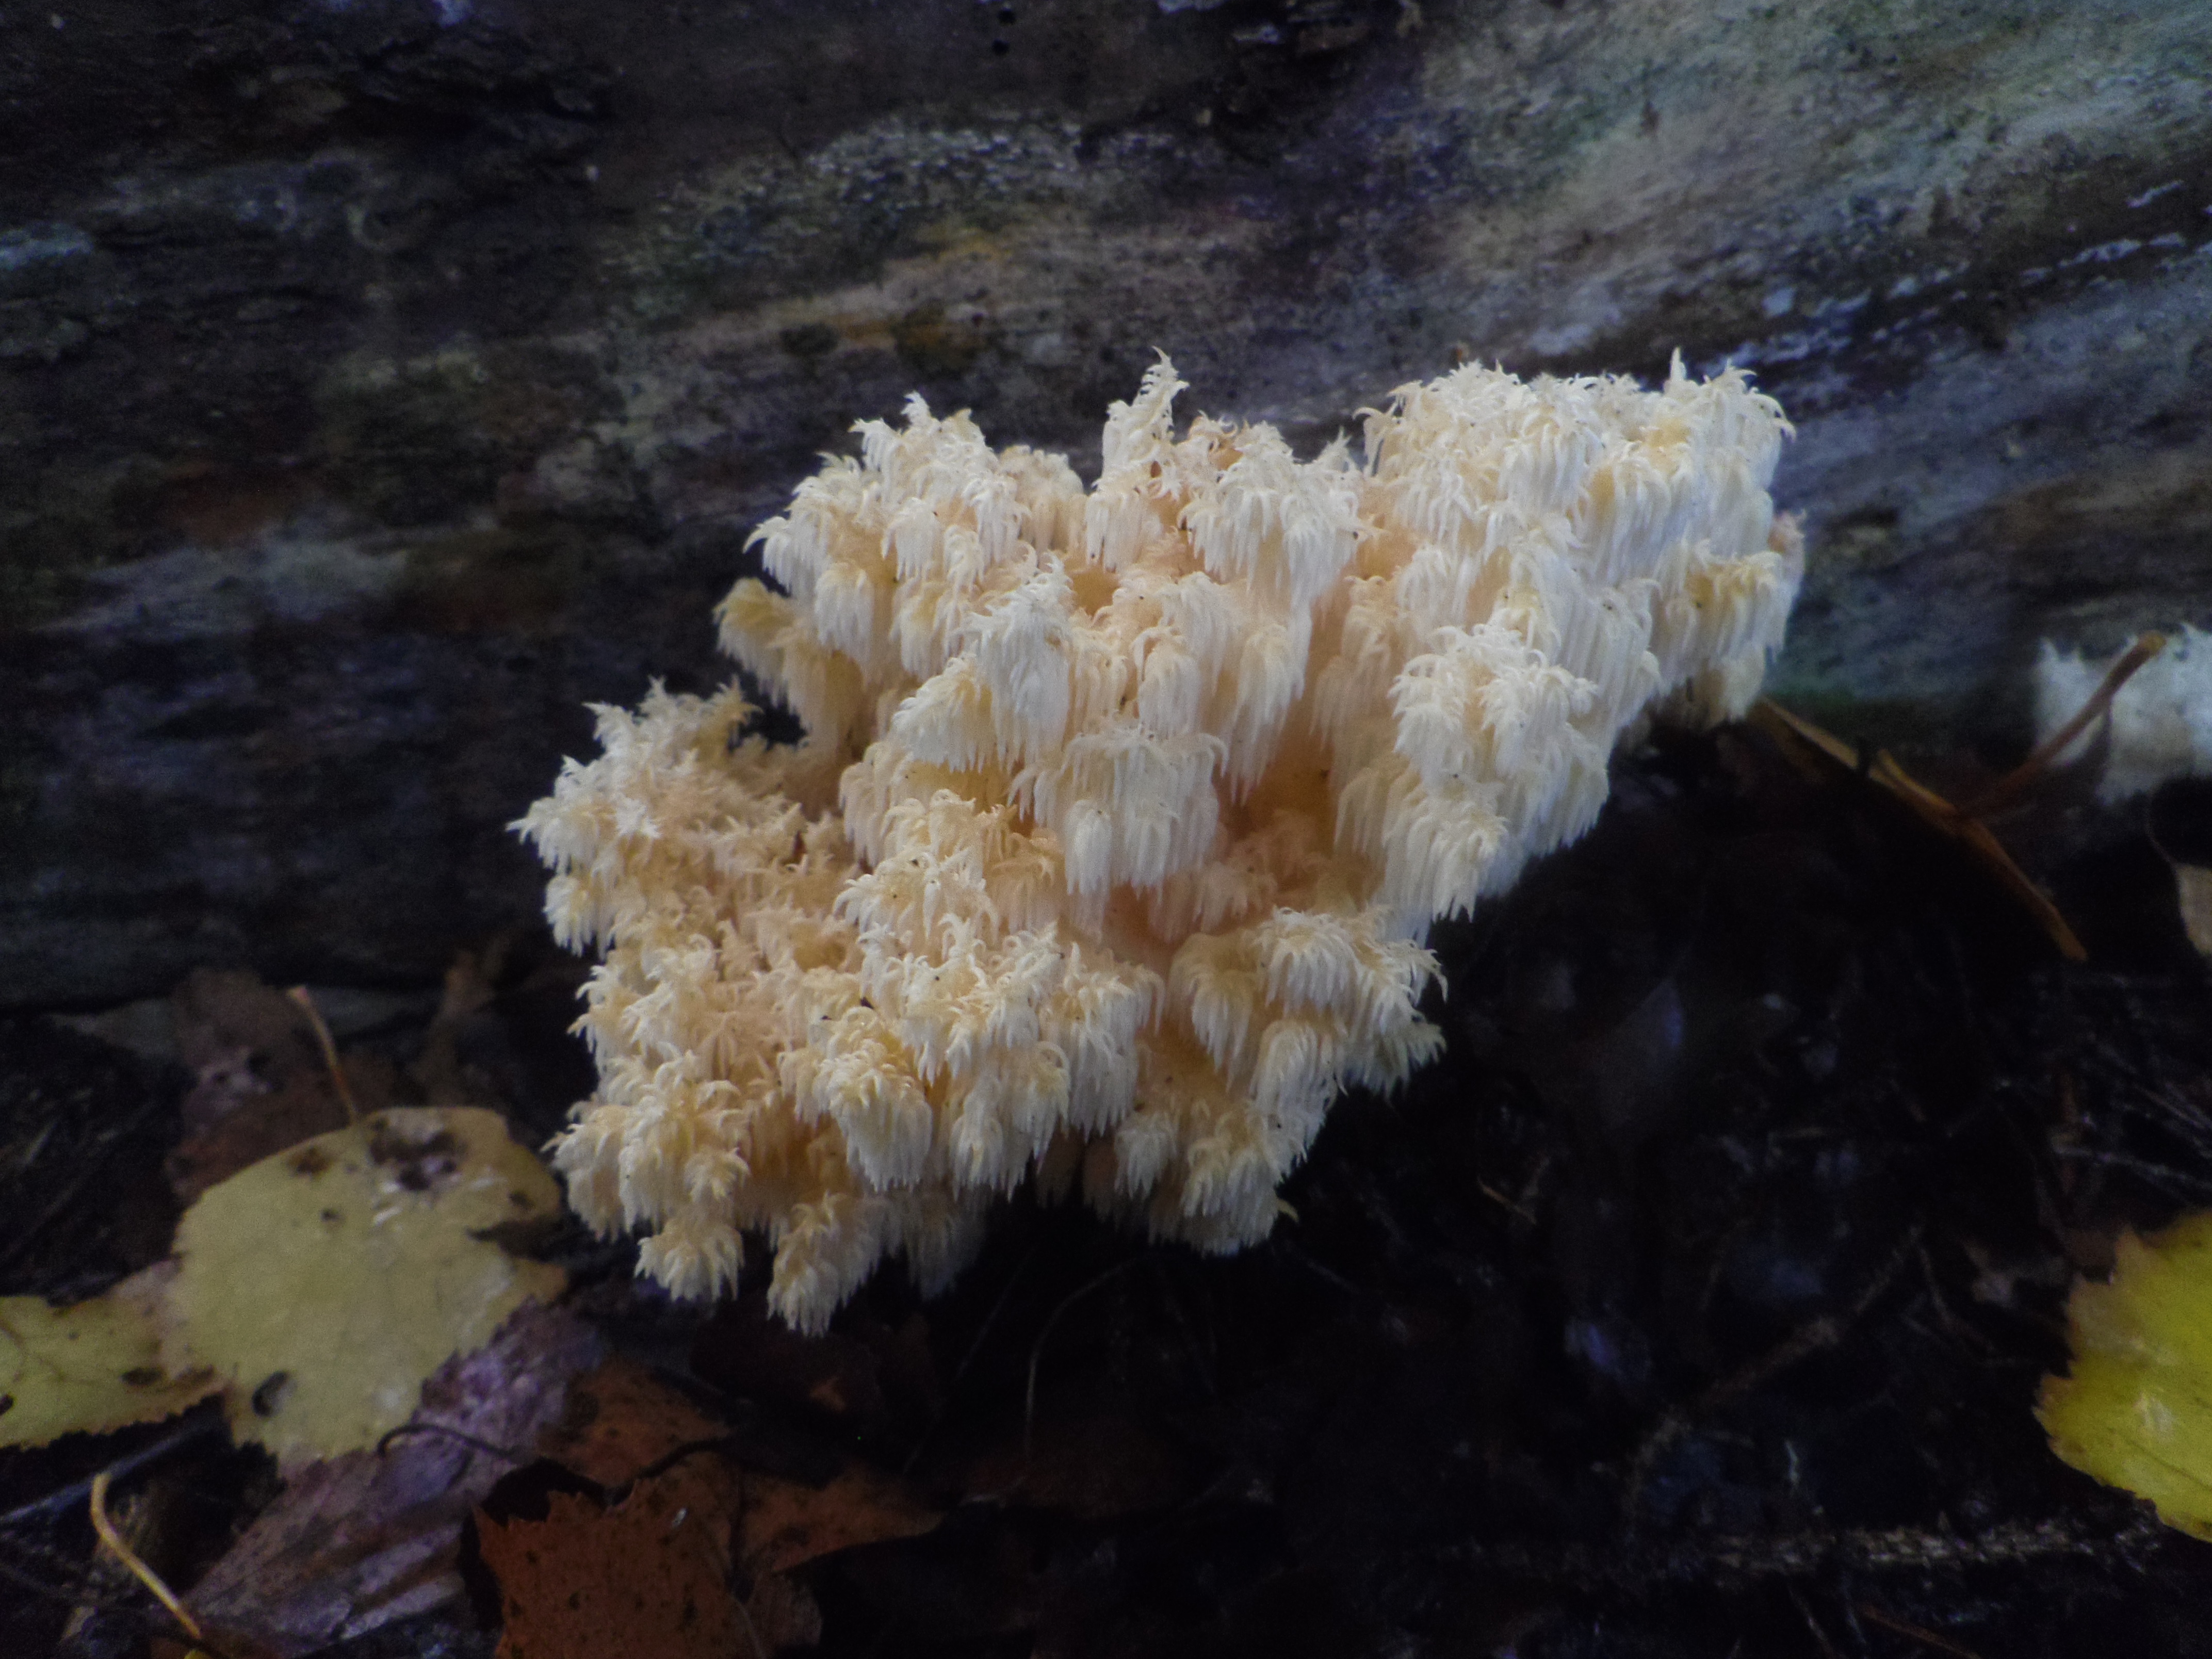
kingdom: Fungi
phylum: Basidiomycota
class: Agaricomycetes
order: Russulales
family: Hericiaceae
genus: Hericium
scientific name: Hericium coralloides
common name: Coral tooth
